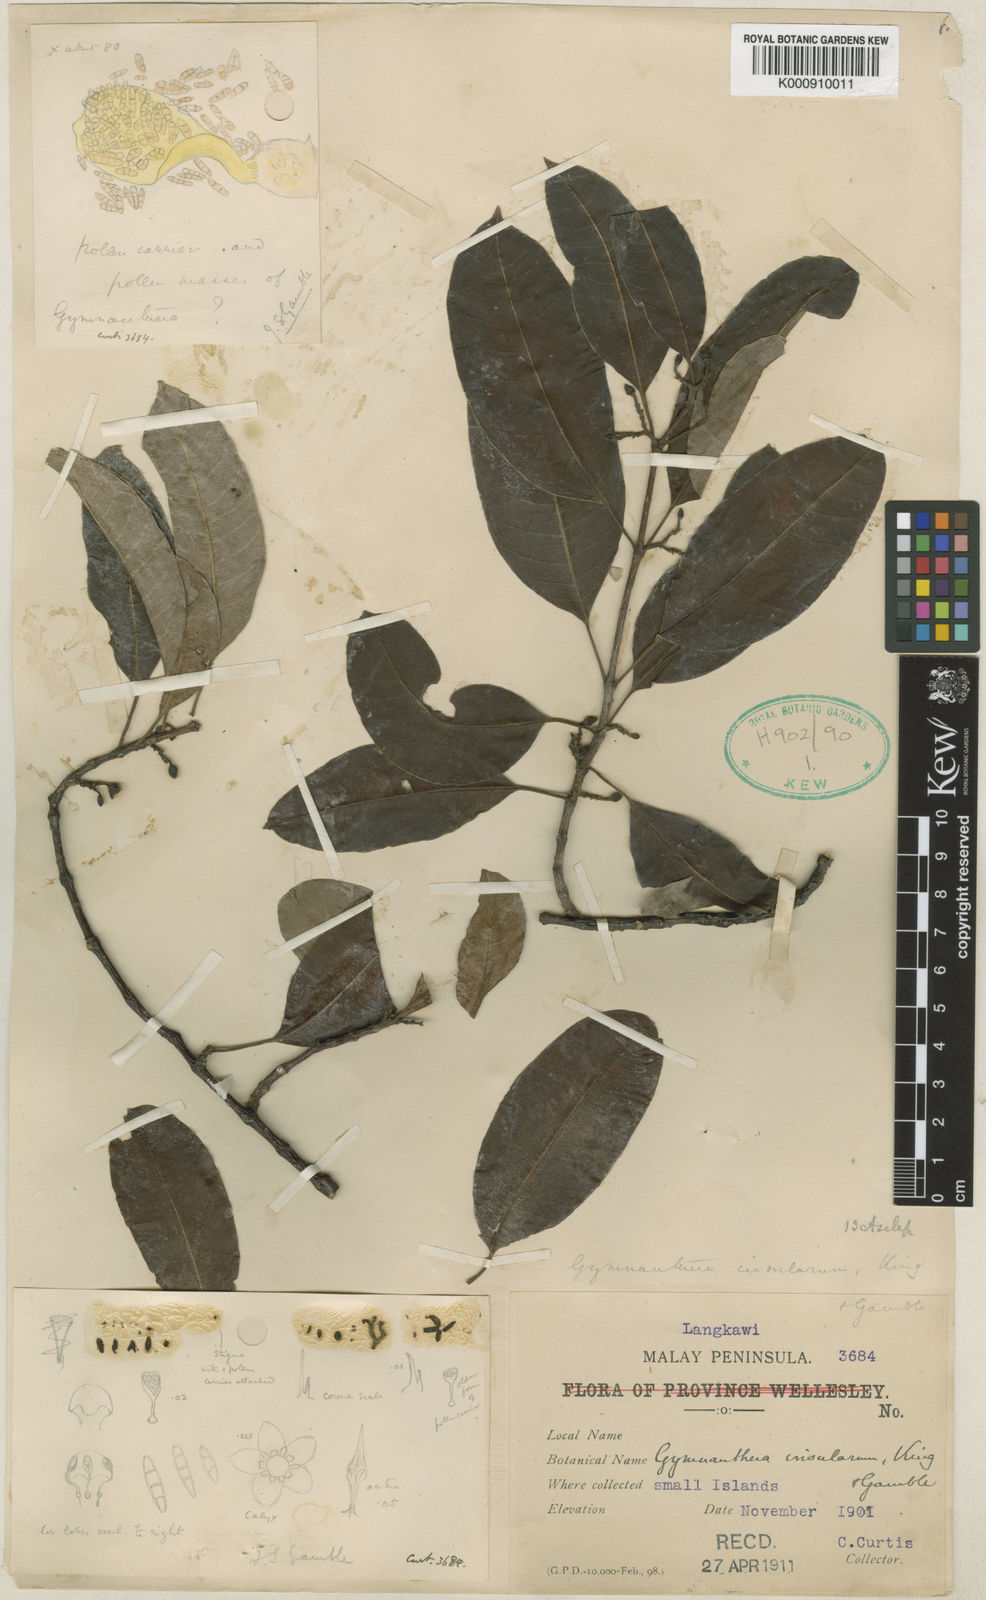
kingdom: Plantae
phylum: Tracheophyta
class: Magnoliopsida
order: Gentianales
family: Apocynaceae
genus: Finlaysonia
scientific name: Finlaysonia insularum
